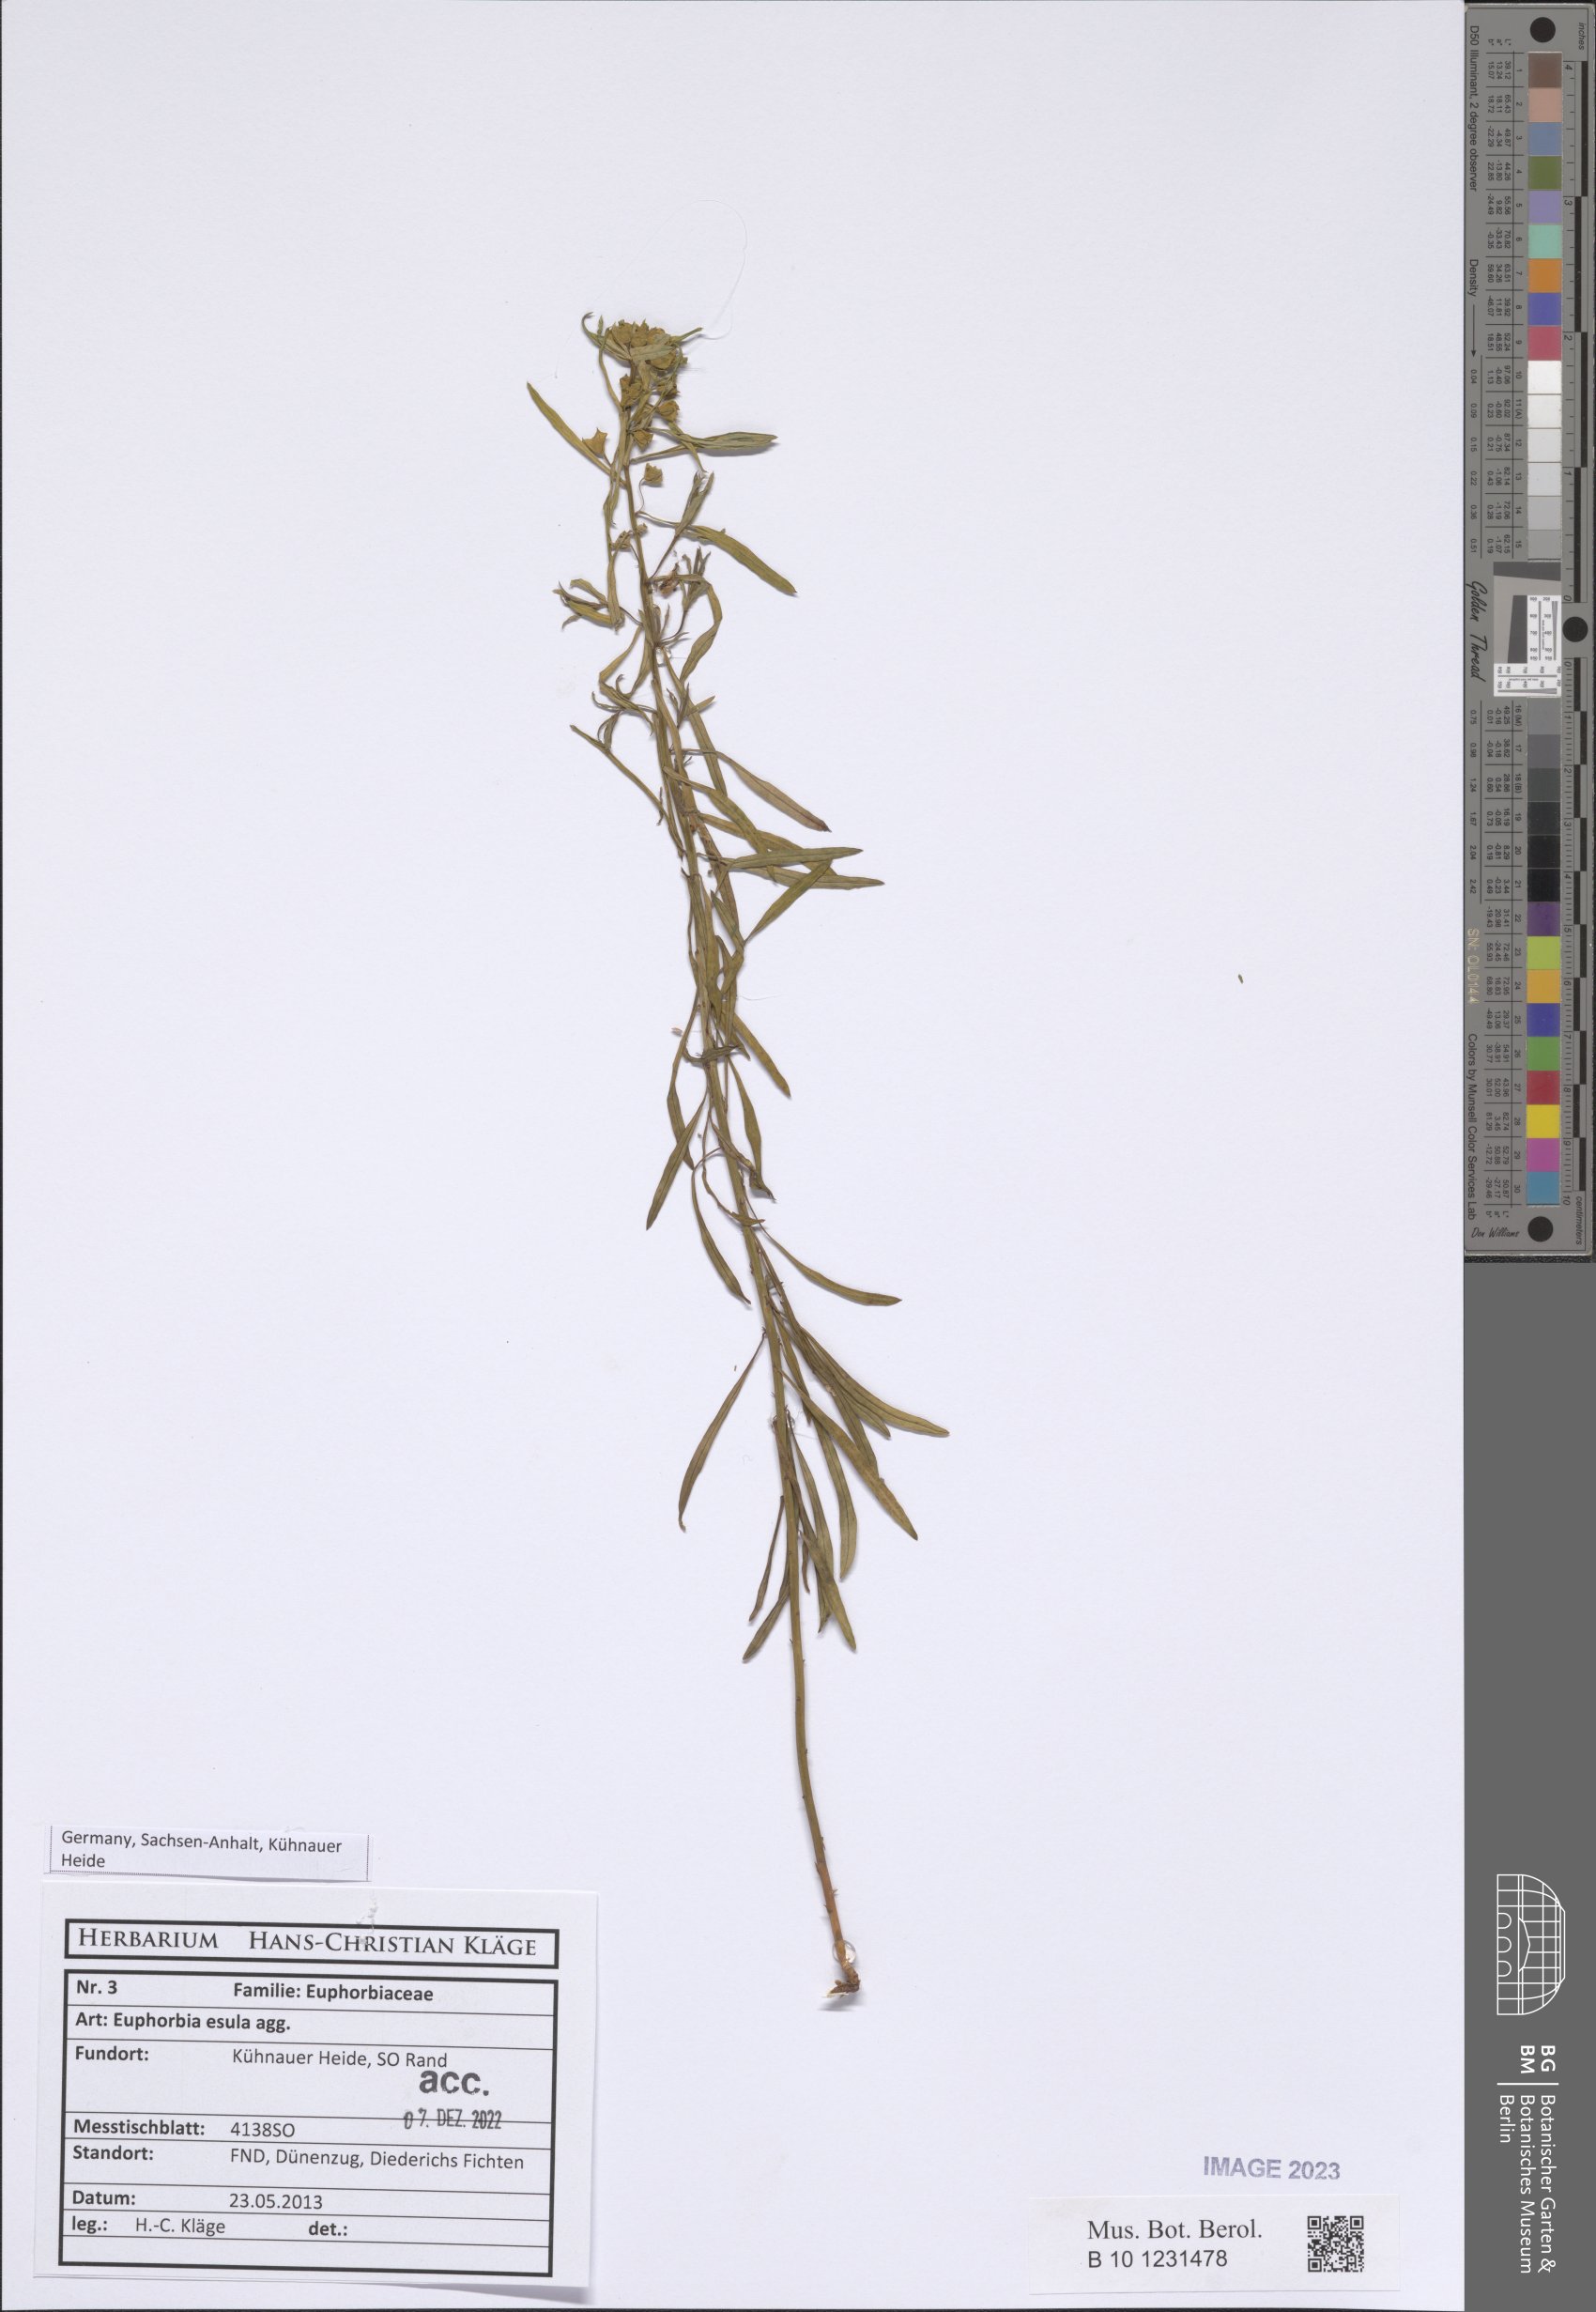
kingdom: Plantae
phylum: Tracheophyta
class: Magnoliopsida
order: Malpighiales
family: Euphorbiaceae
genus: Euphorbia
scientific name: Euphorbia esula
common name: Leafy spurge
